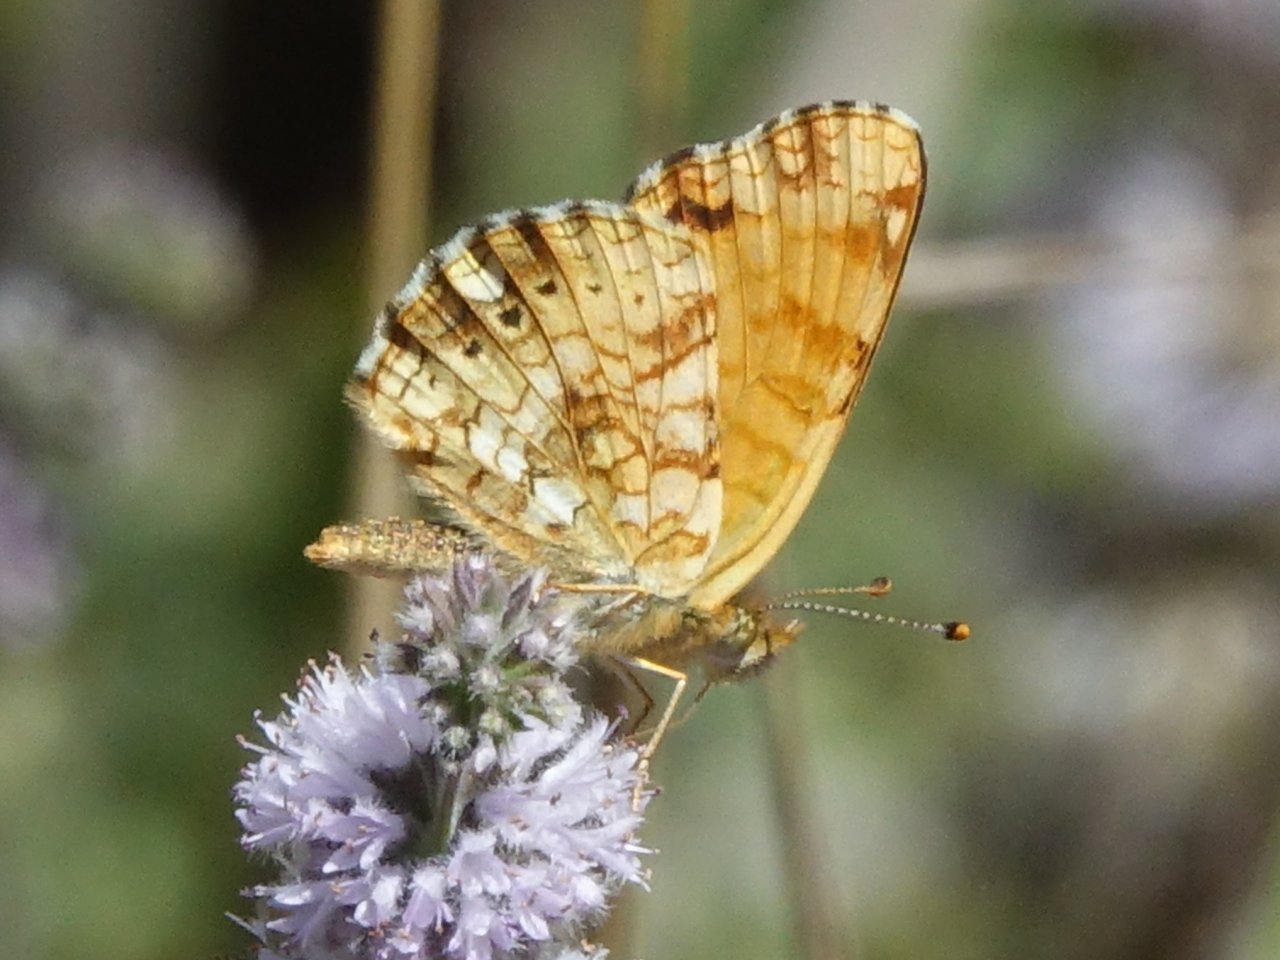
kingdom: Animalia
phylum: Arthropoda
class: Insecta
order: Lepidoptera
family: Nymphalidae
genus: Eresia
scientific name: Eresia aveyrona
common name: Mylitta Crescent
